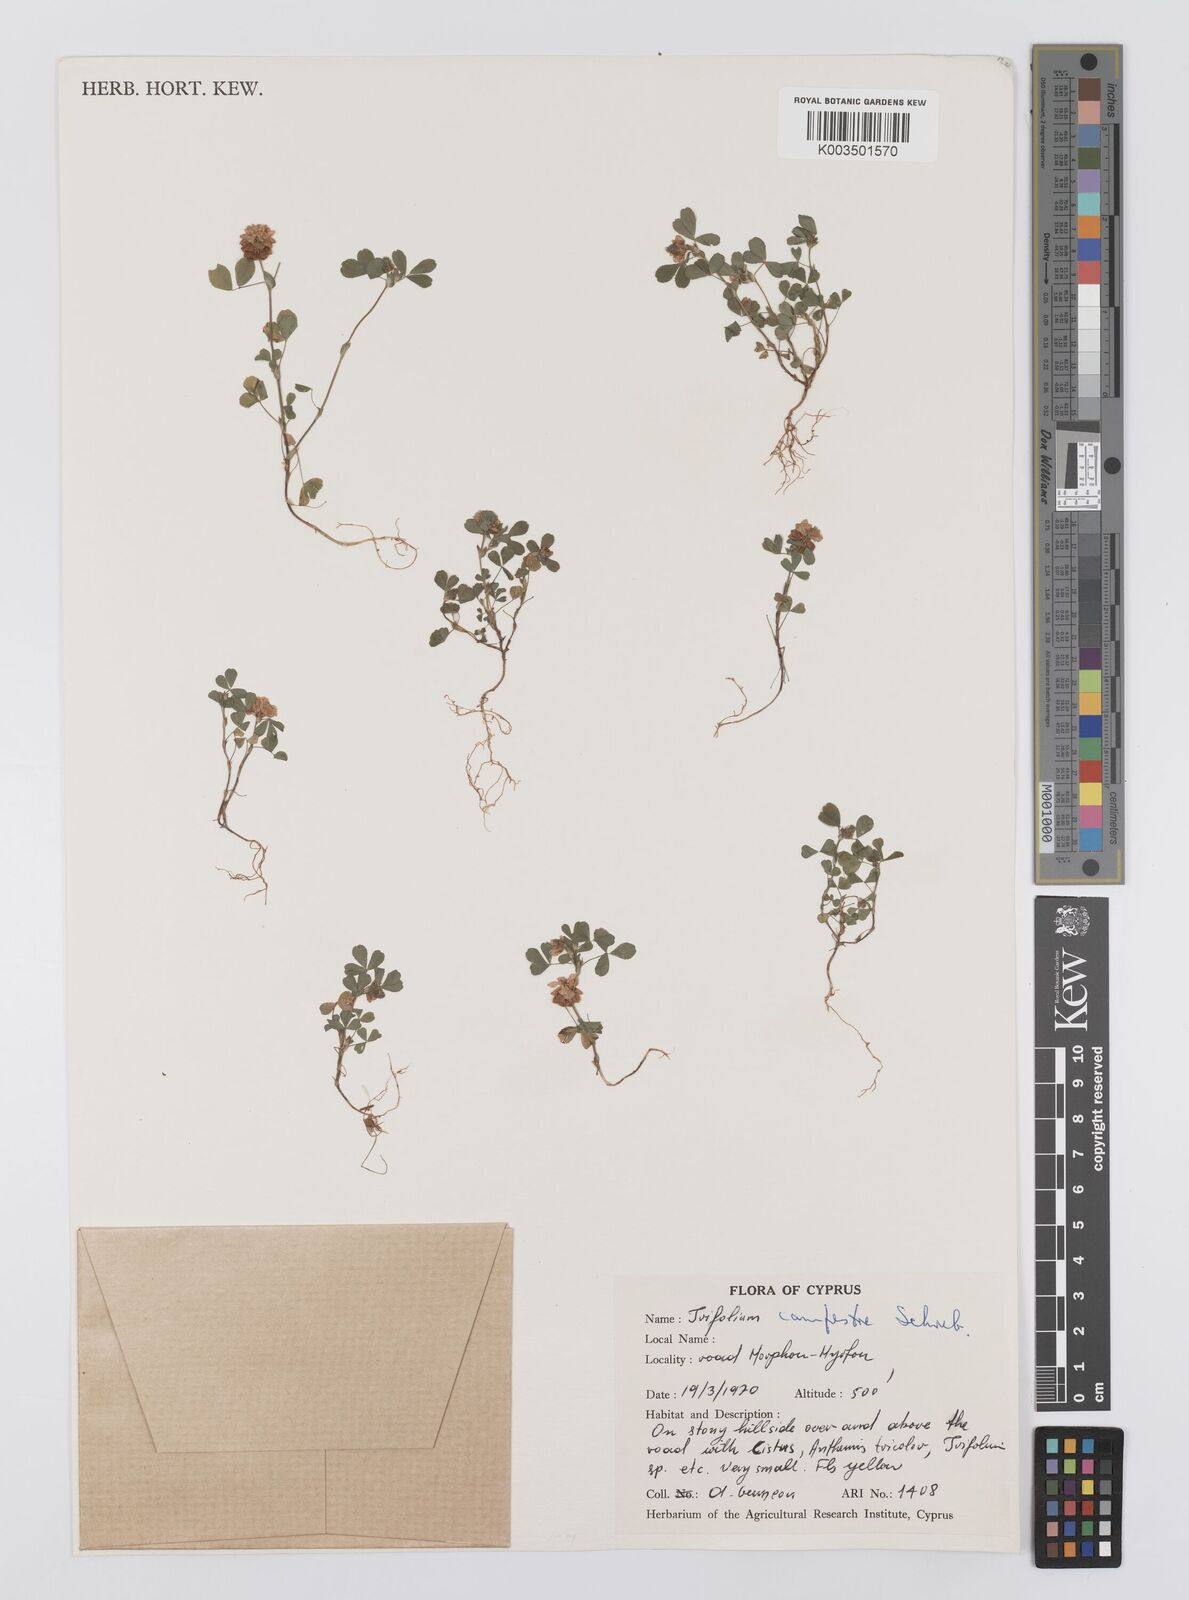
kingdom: Plantae
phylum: Tracheophyta
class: Magnoliopsida
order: Fabales
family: Fabaceae
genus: Trifolium
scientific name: Trifolium campestre
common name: Field clover
